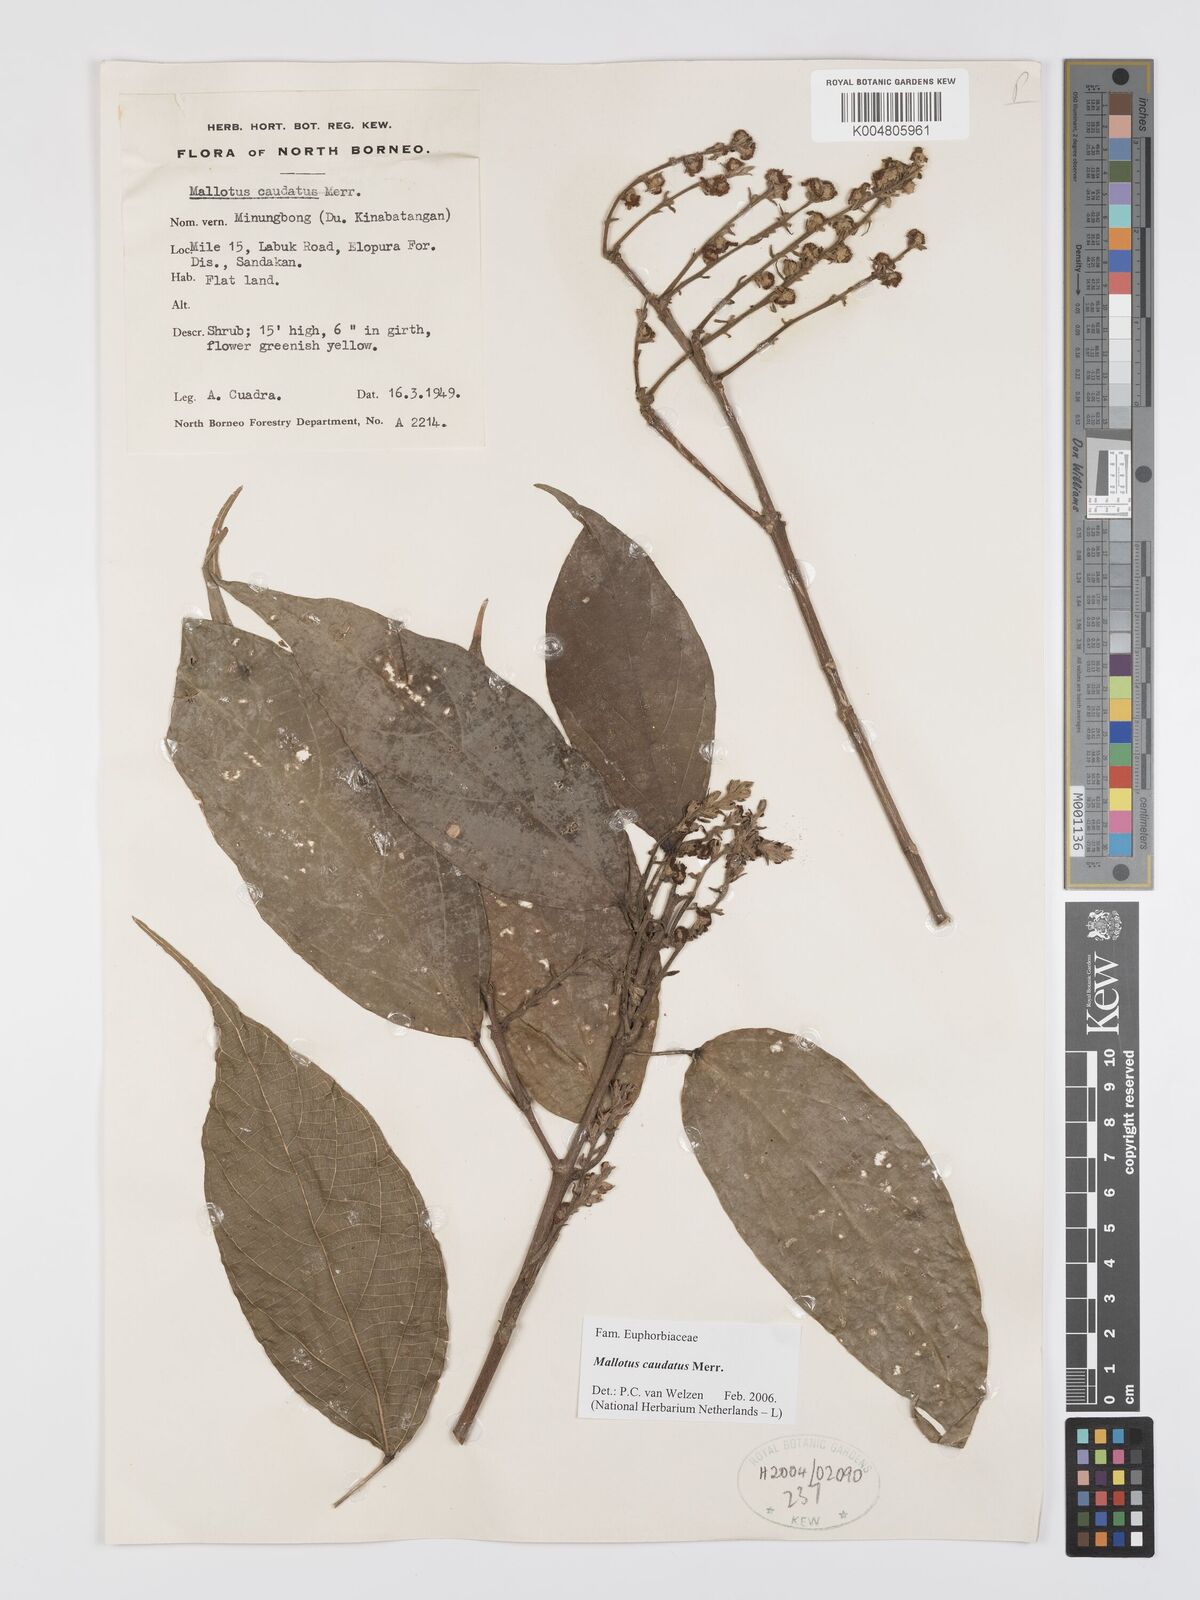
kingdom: Plantae
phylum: Tracheophyta
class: Magnoliopsida
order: Malpighiales
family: Euphorbiaceae
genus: Mallotus
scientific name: Mallotus caudatus
